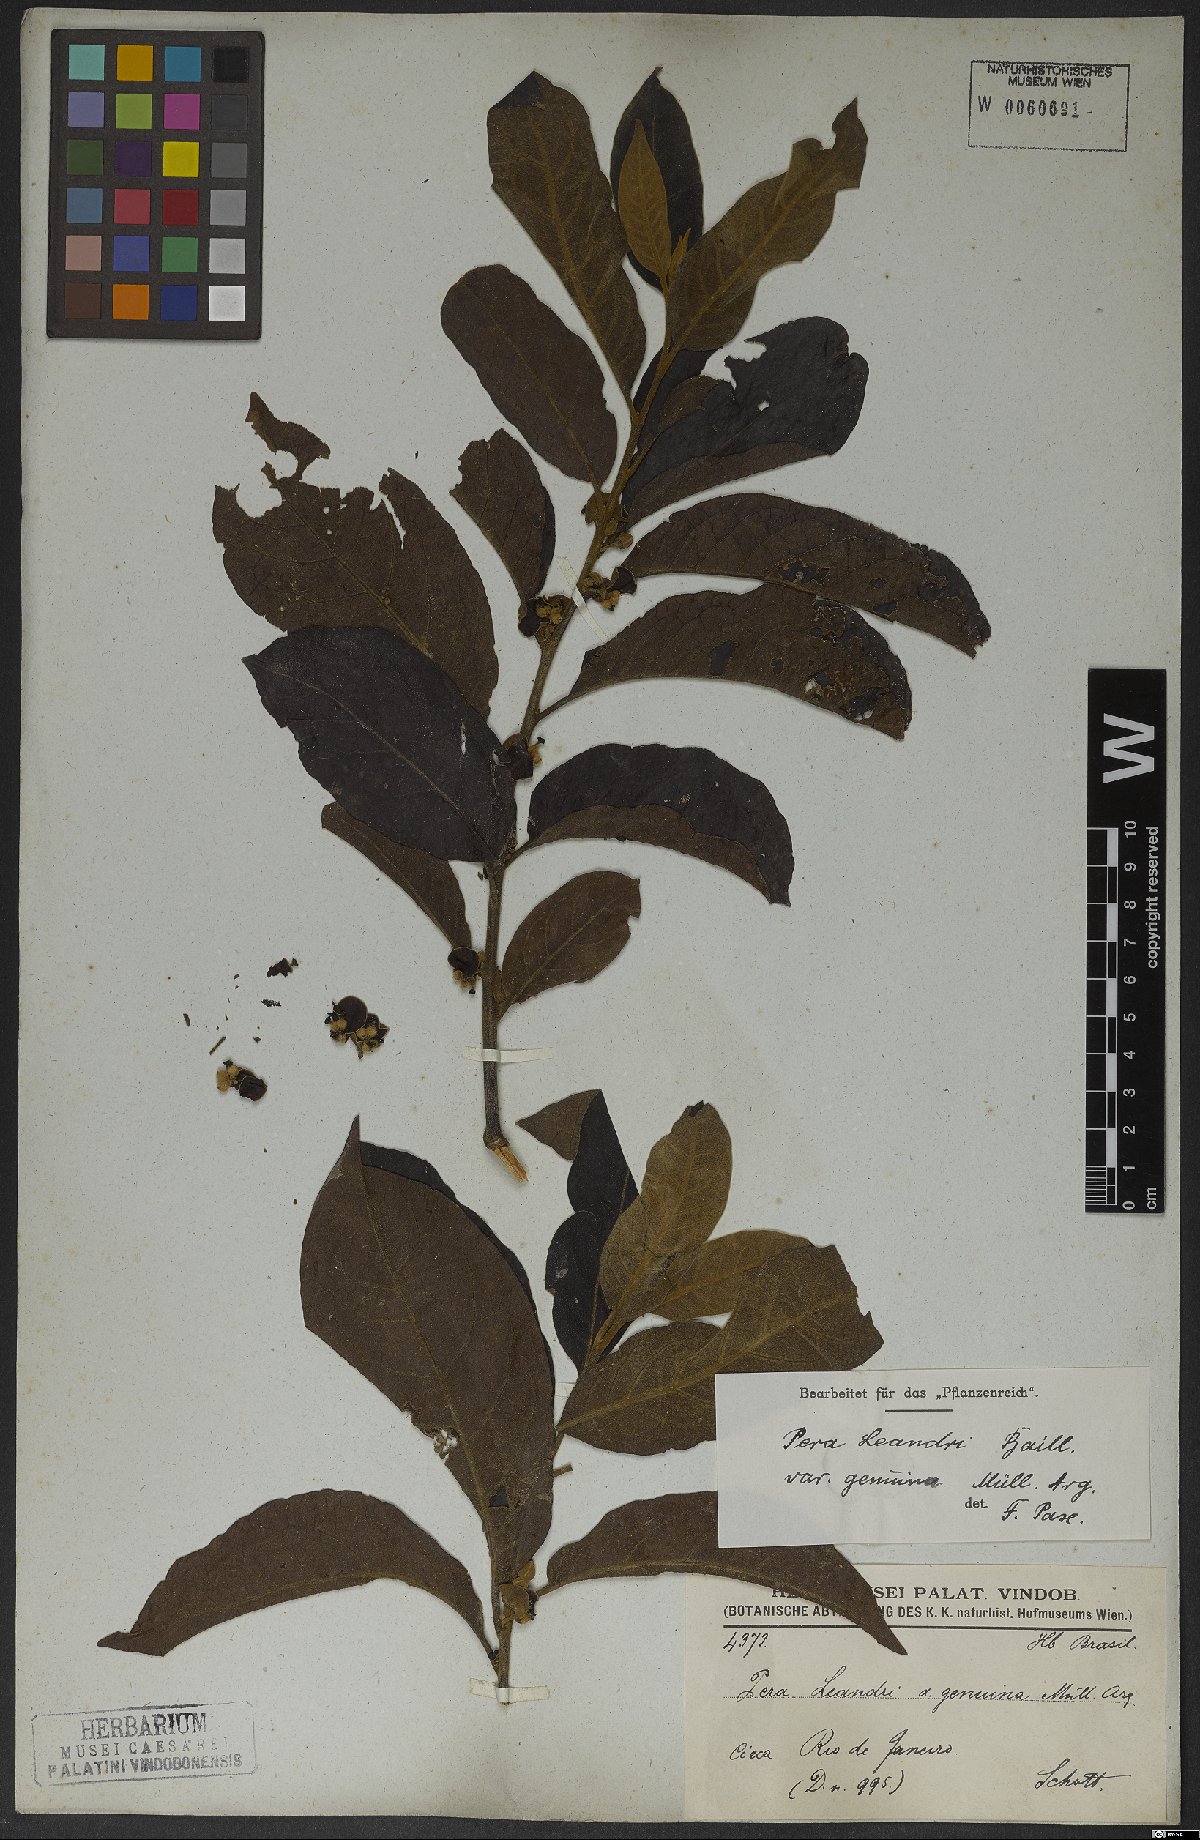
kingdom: Plantae
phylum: Tracheophyta
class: Magnoliopsida
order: Malpighiales
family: Peraceae
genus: Pera
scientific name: Pera heteranthera
